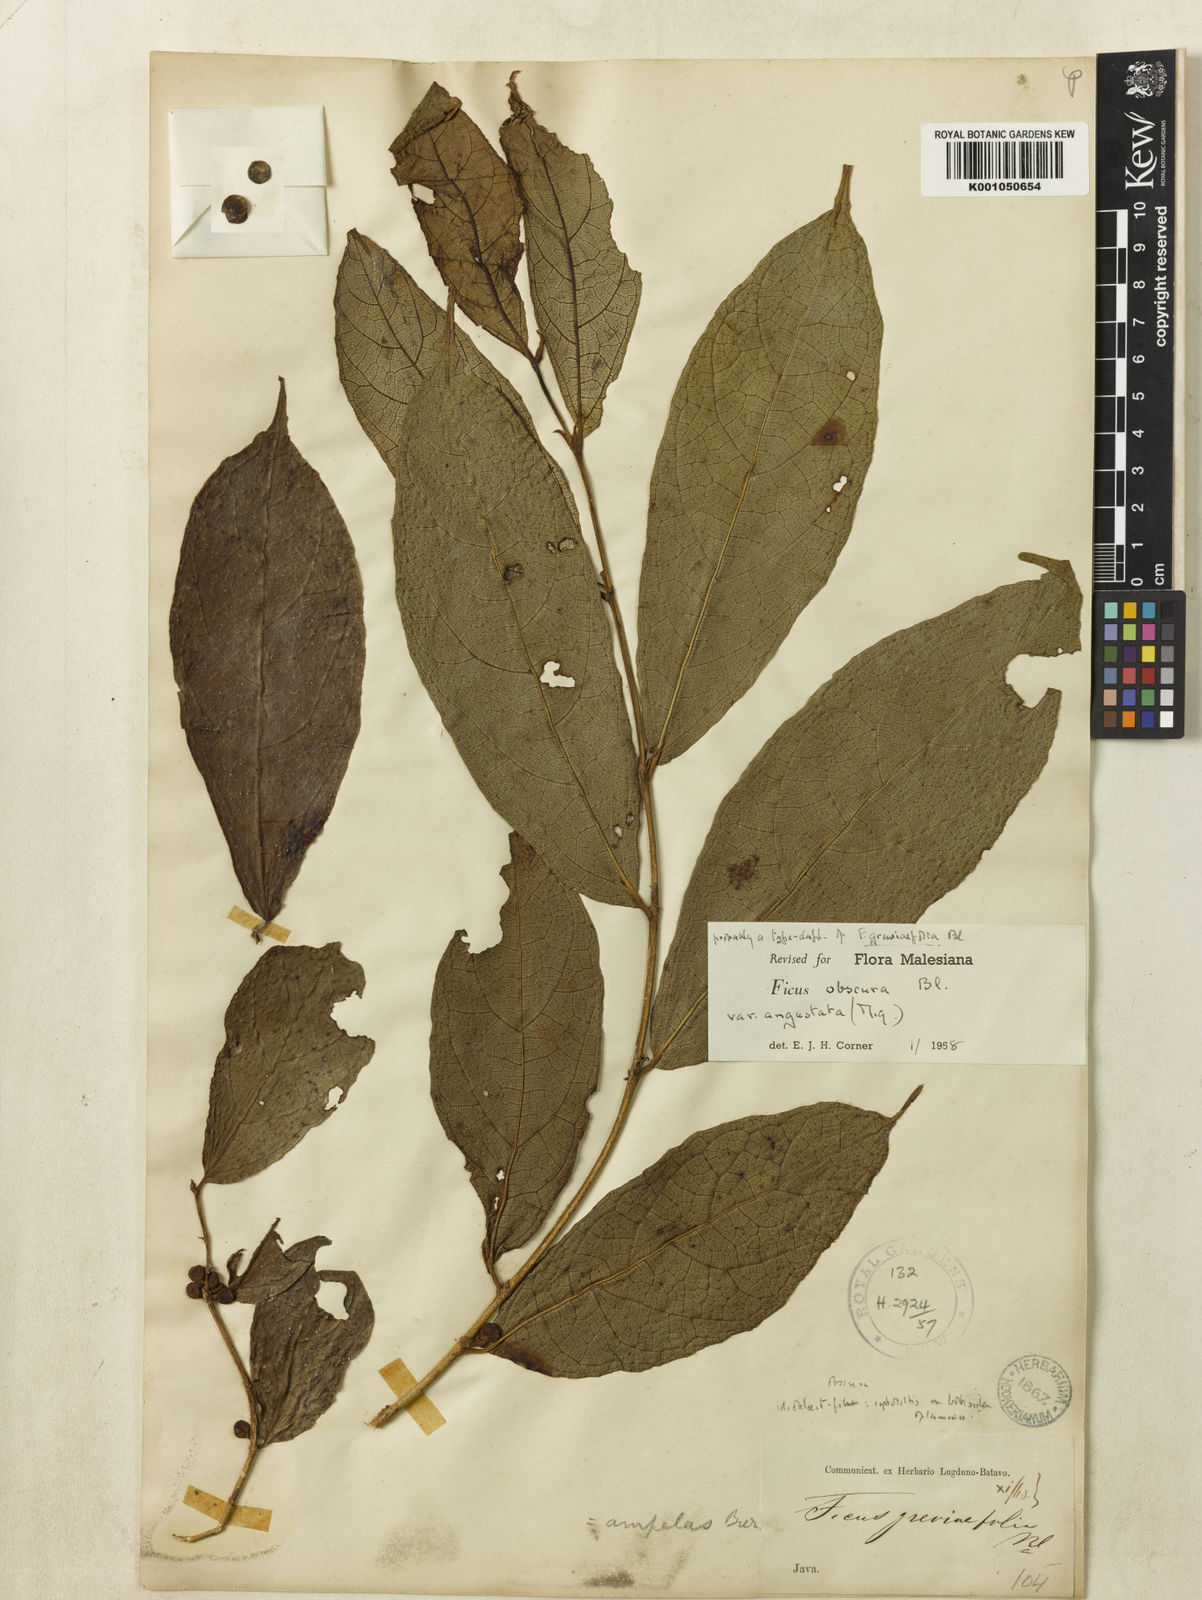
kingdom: Plantae
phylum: Tracheophyta
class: Magnoliopsida
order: Rosales
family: Moraceae
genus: Ficus
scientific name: Ficus obscura
